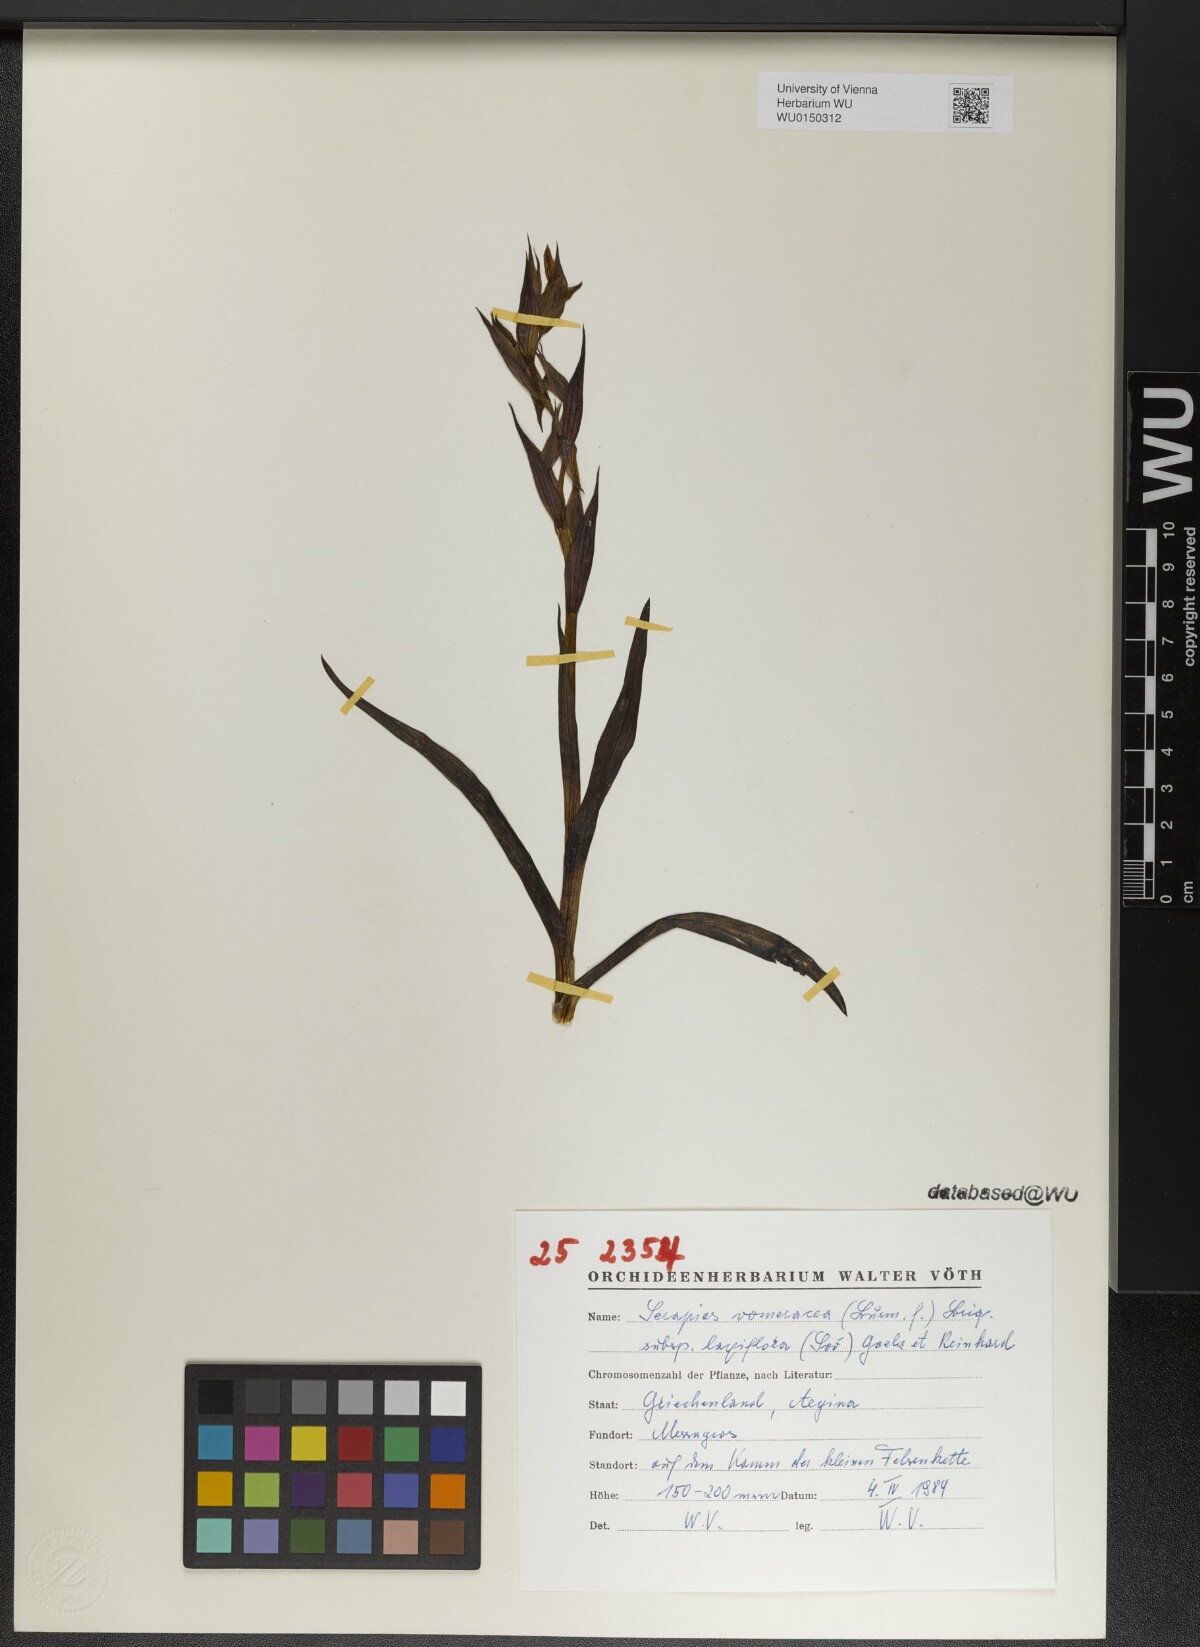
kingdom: Plantae
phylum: Tracheophyta
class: Liliopsida
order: Asparagales
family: Orchidaceae
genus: Serapias
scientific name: Serapias bergonii
